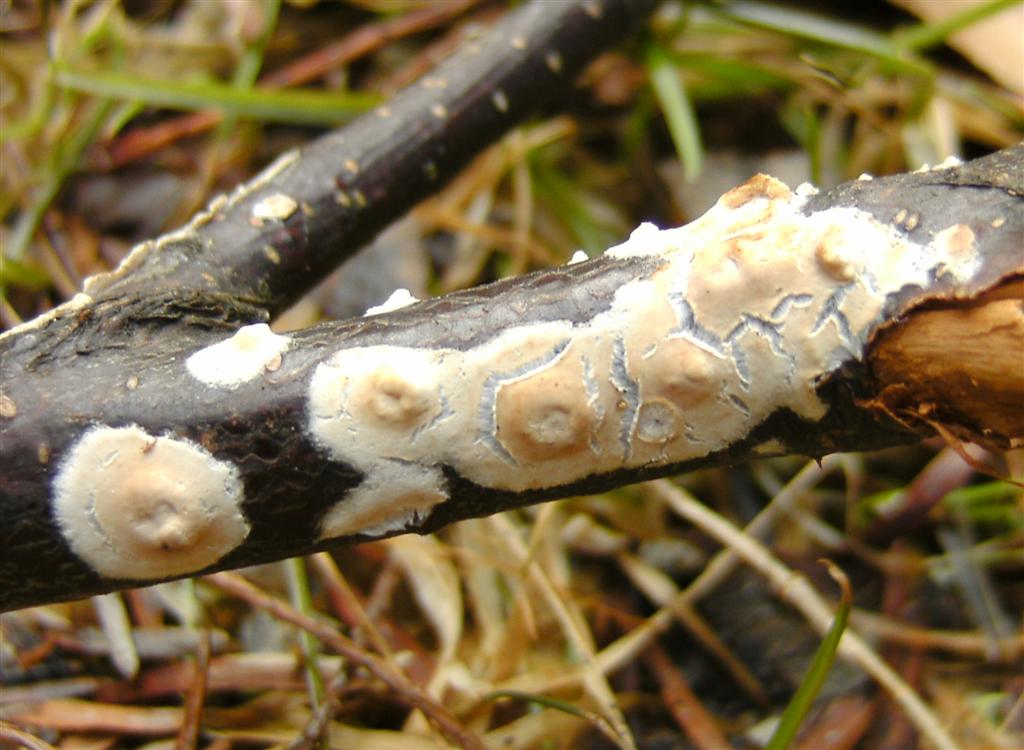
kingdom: Fungi
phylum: Basidiomycota
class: Agaricomycetes
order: Agaricales
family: Physalacriaceae
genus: Cylindrobasidium
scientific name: Cylindrobasidium evolvens
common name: sprækkehinde
